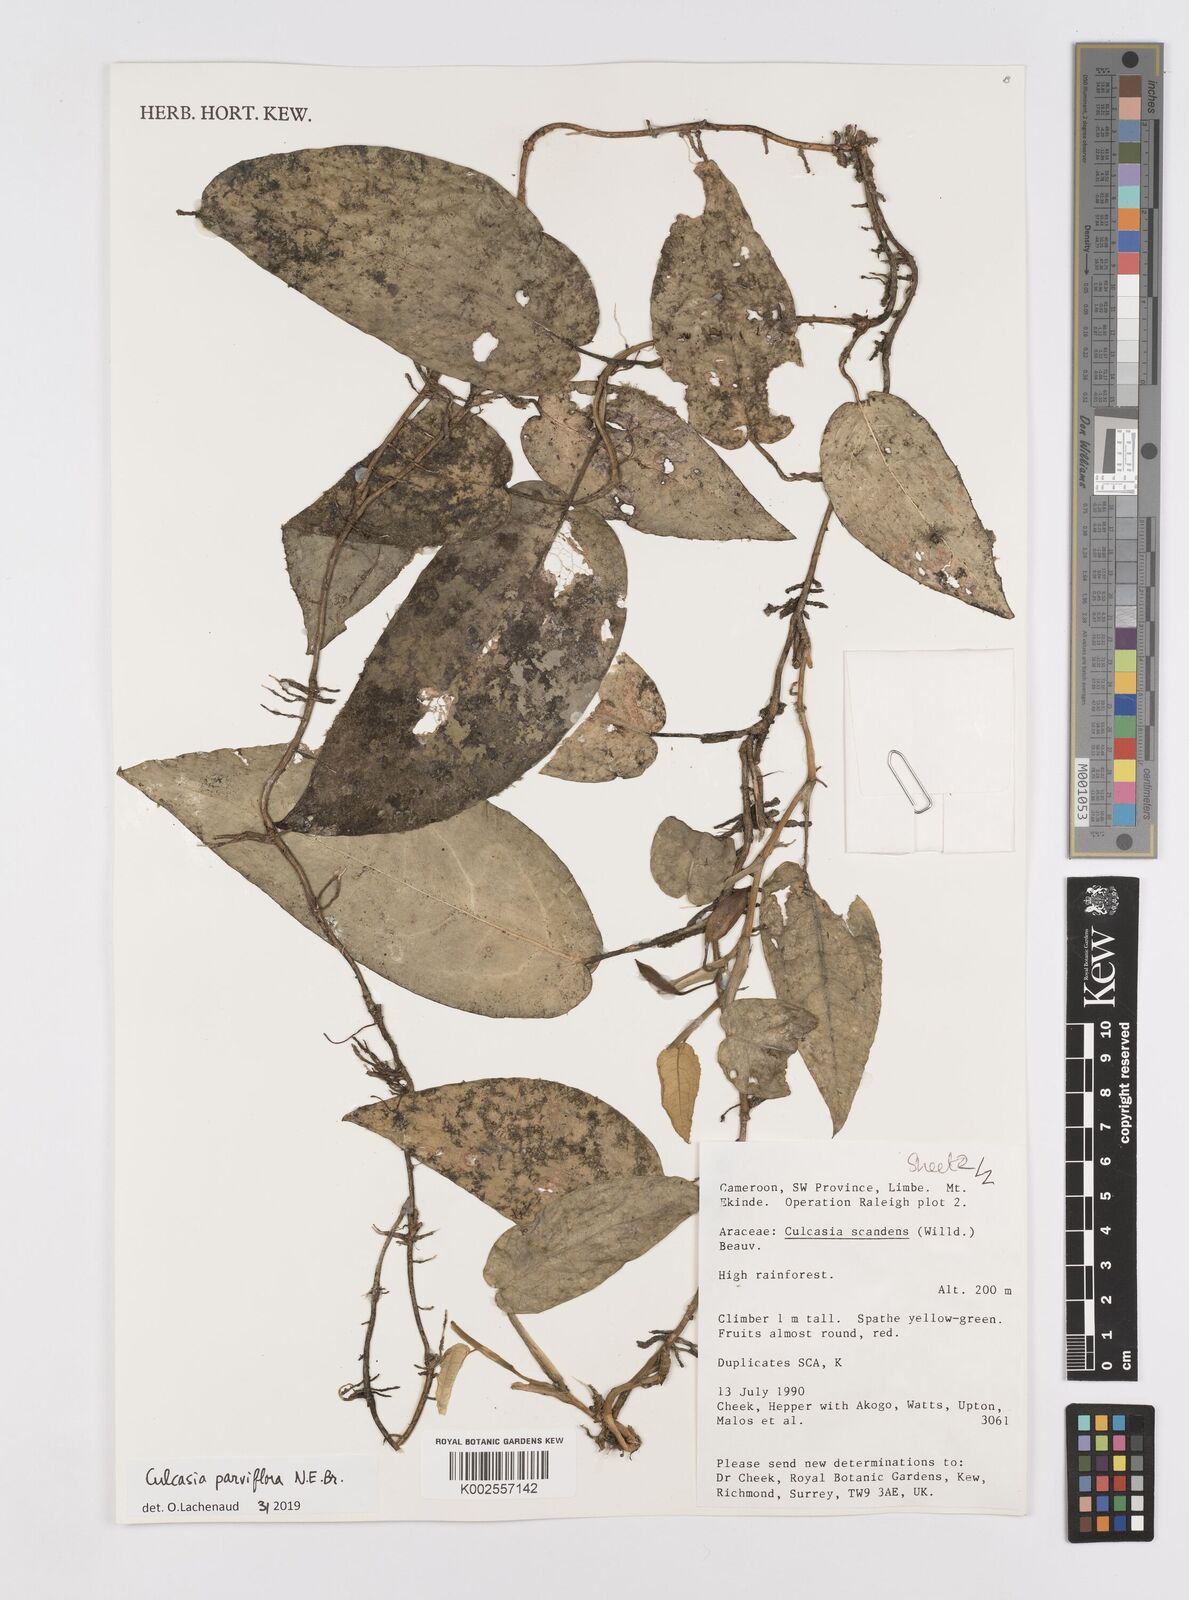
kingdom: Plantae
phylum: Tracheophyta
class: Liliopsida
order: Alismatales
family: Araceae
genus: Culcasia
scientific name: Culcasia parviflora
